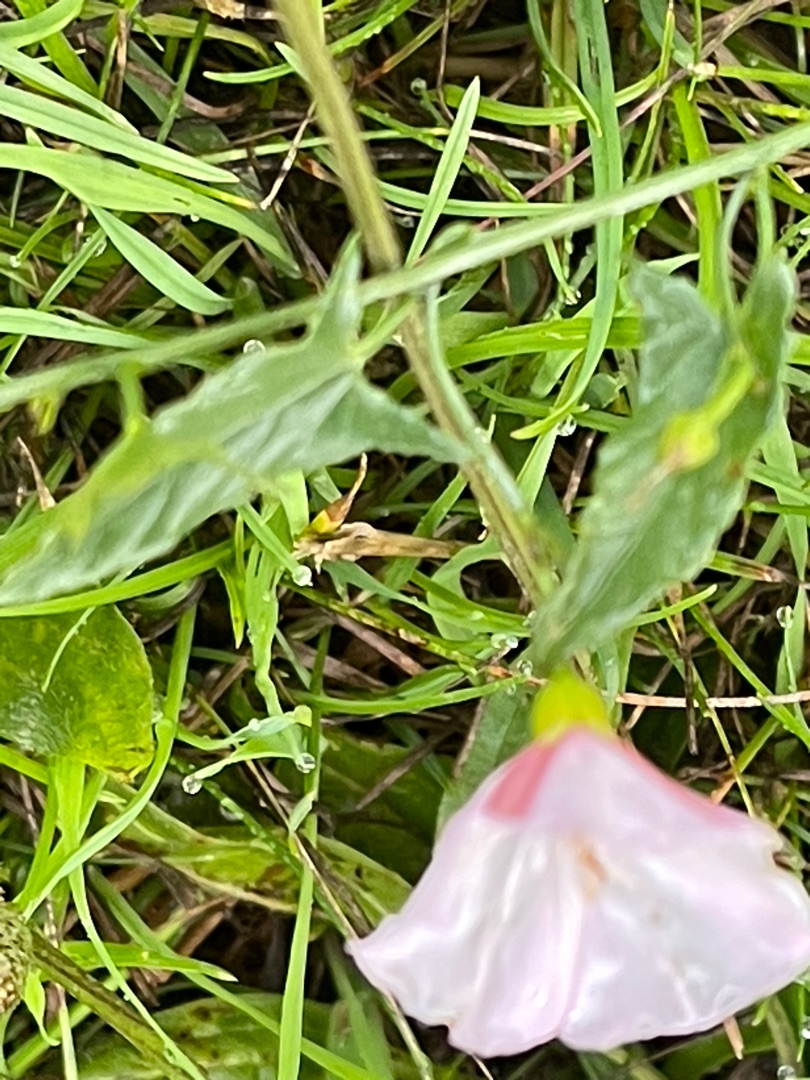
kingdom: Plantae
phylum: Tracheophyta
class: Magnoliopsida
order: Solanales
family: Convolvulaceae
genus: Convolvulus
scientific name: Convolvulus arvensis
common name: Ager-snerle
